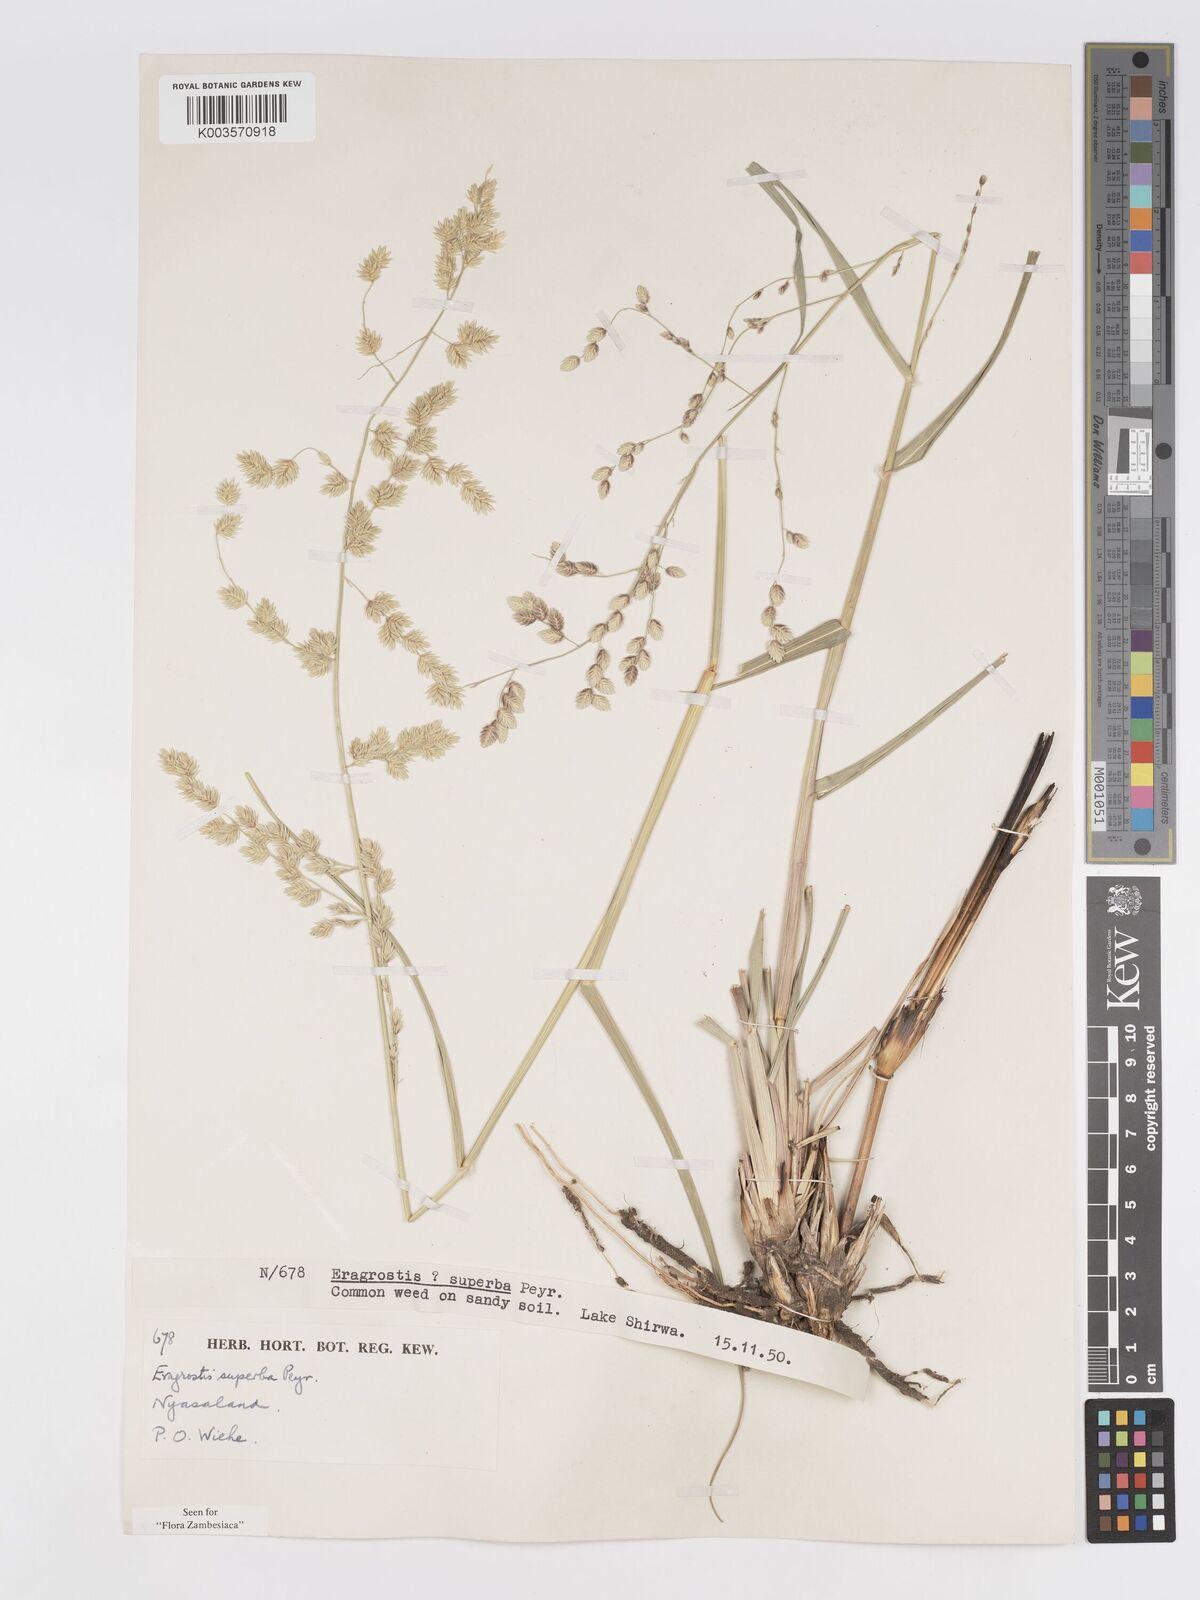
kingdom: Plantae
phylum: Tracheophyta
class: Liliopsida
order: Poales
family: Poaceae
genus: Eragrostis
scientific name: Eragrostis superba
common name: Wilman lovegrass
